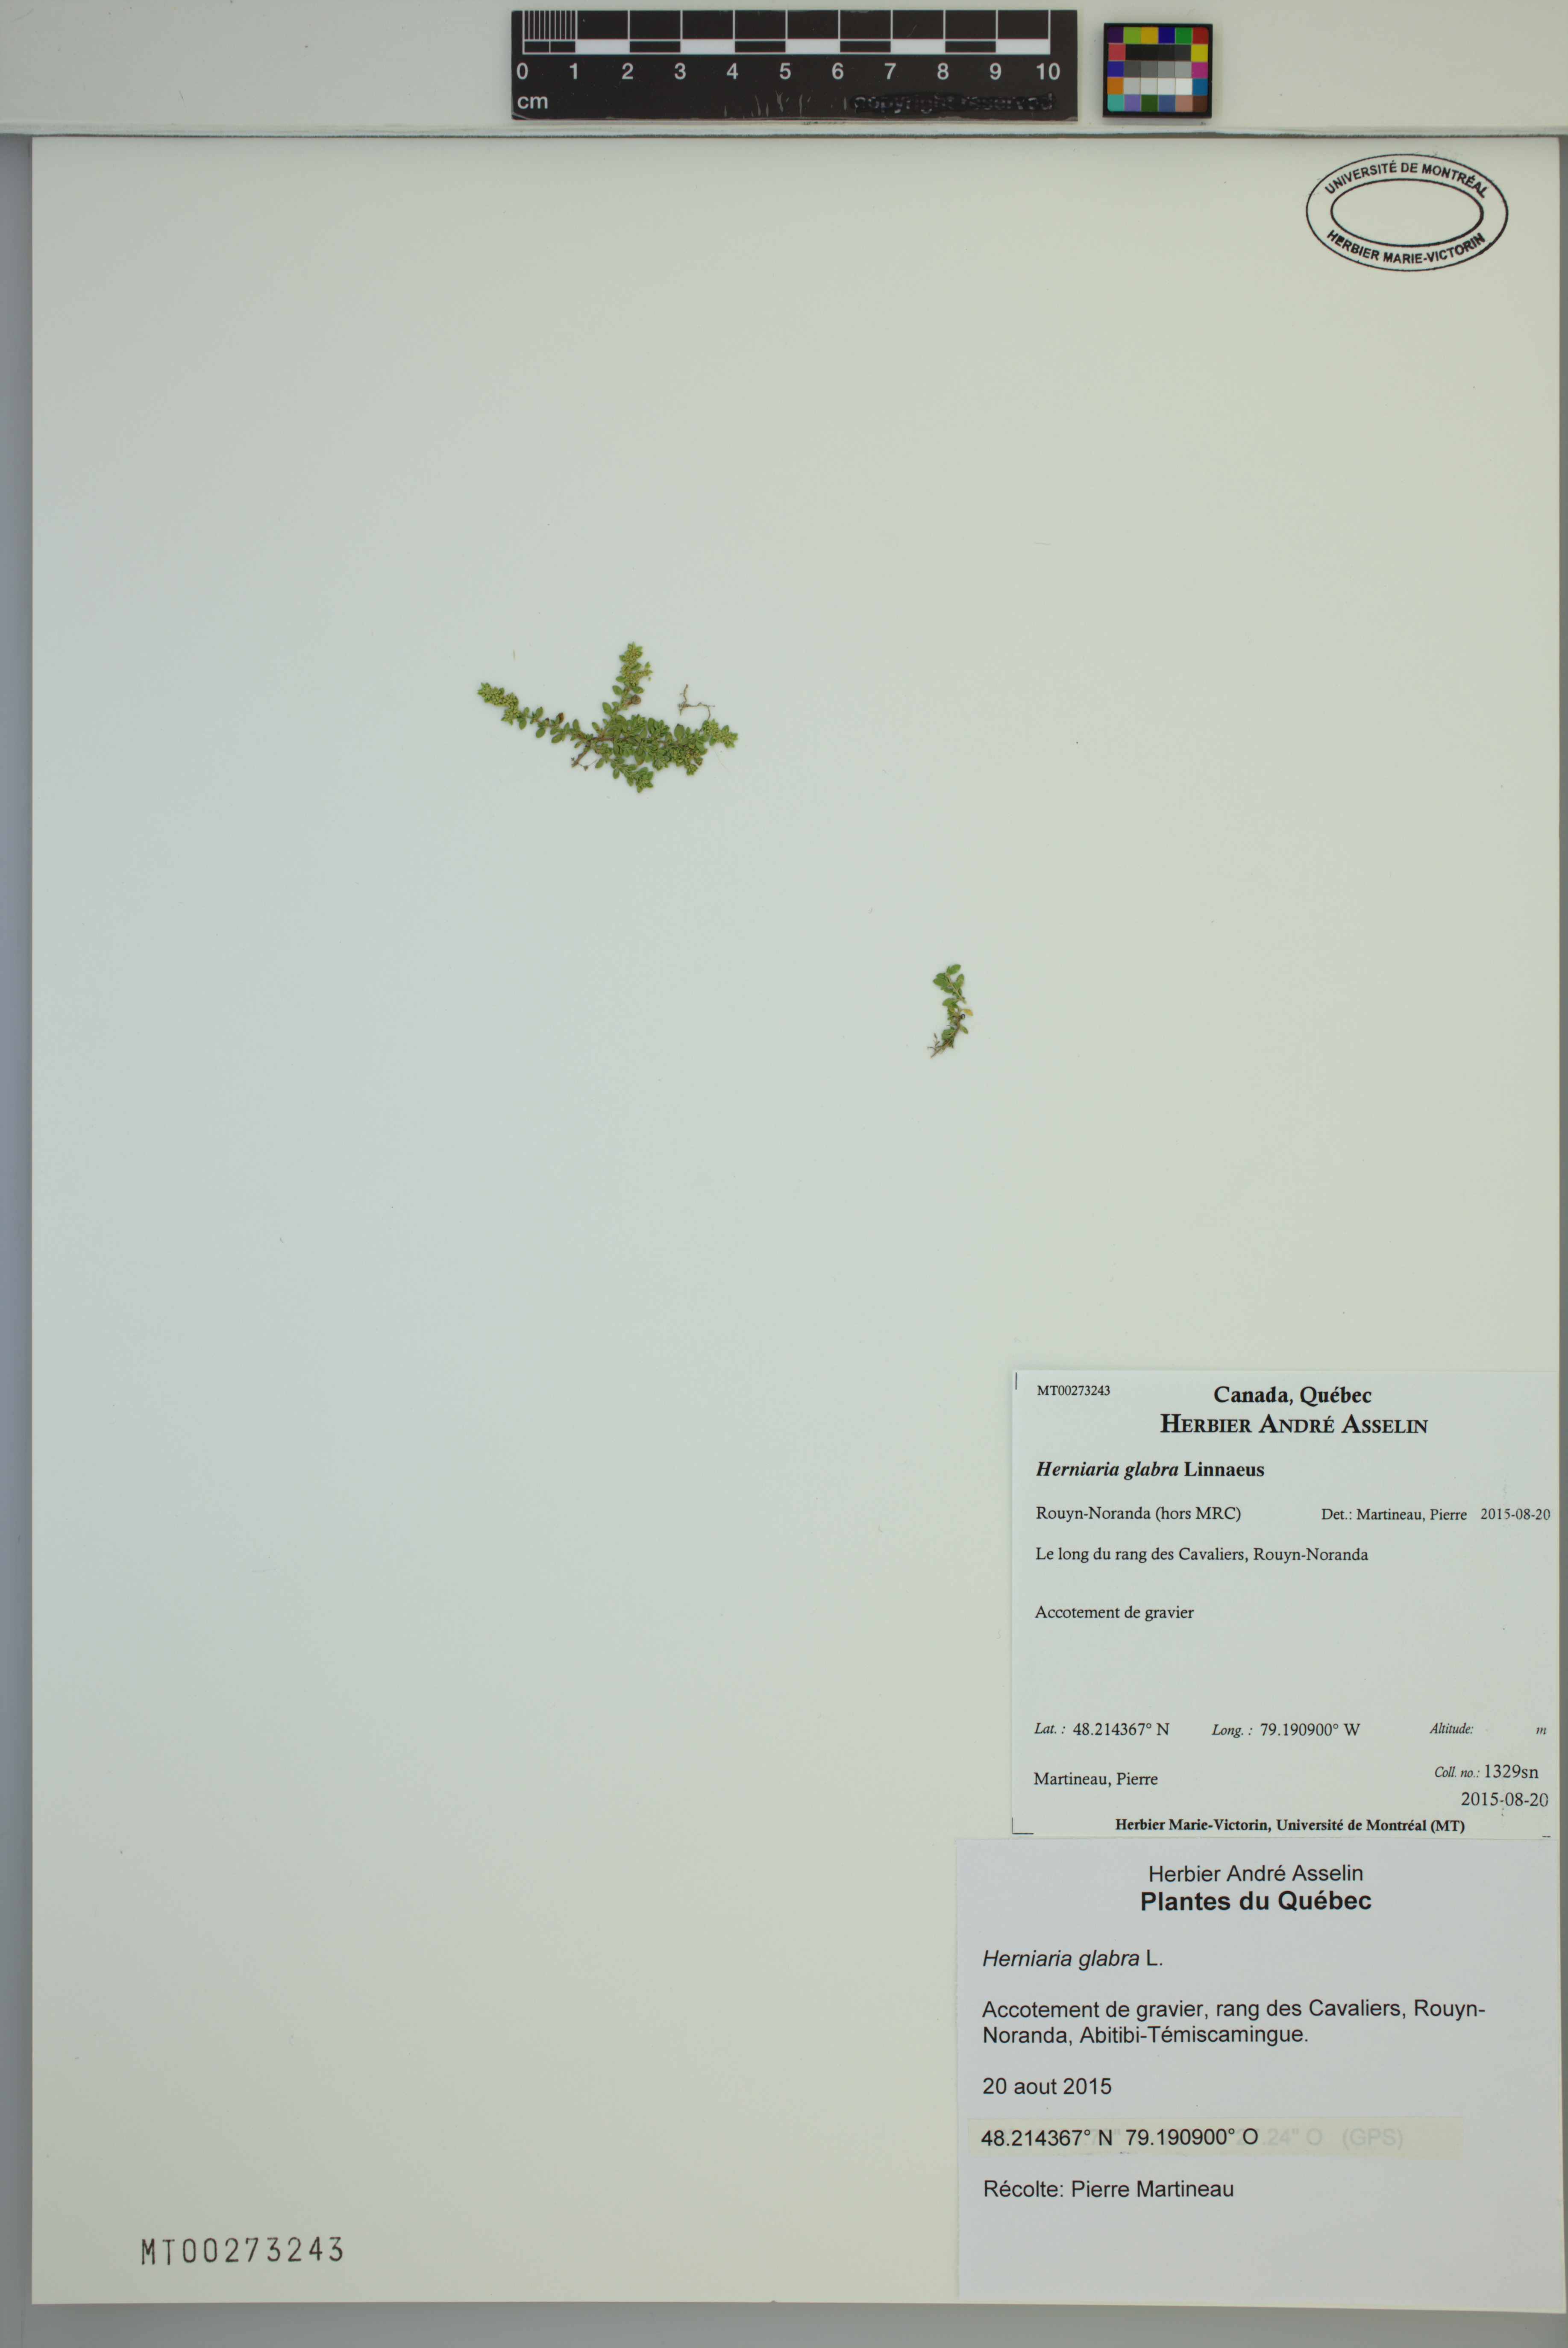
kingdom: Plantae
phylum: Tracheophyta
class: Magnoliopsida
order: Caryophyllales
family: Caryophyllaceae
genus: Herniaria
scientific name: Herniaria glabra
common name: Smooth rupturewort
